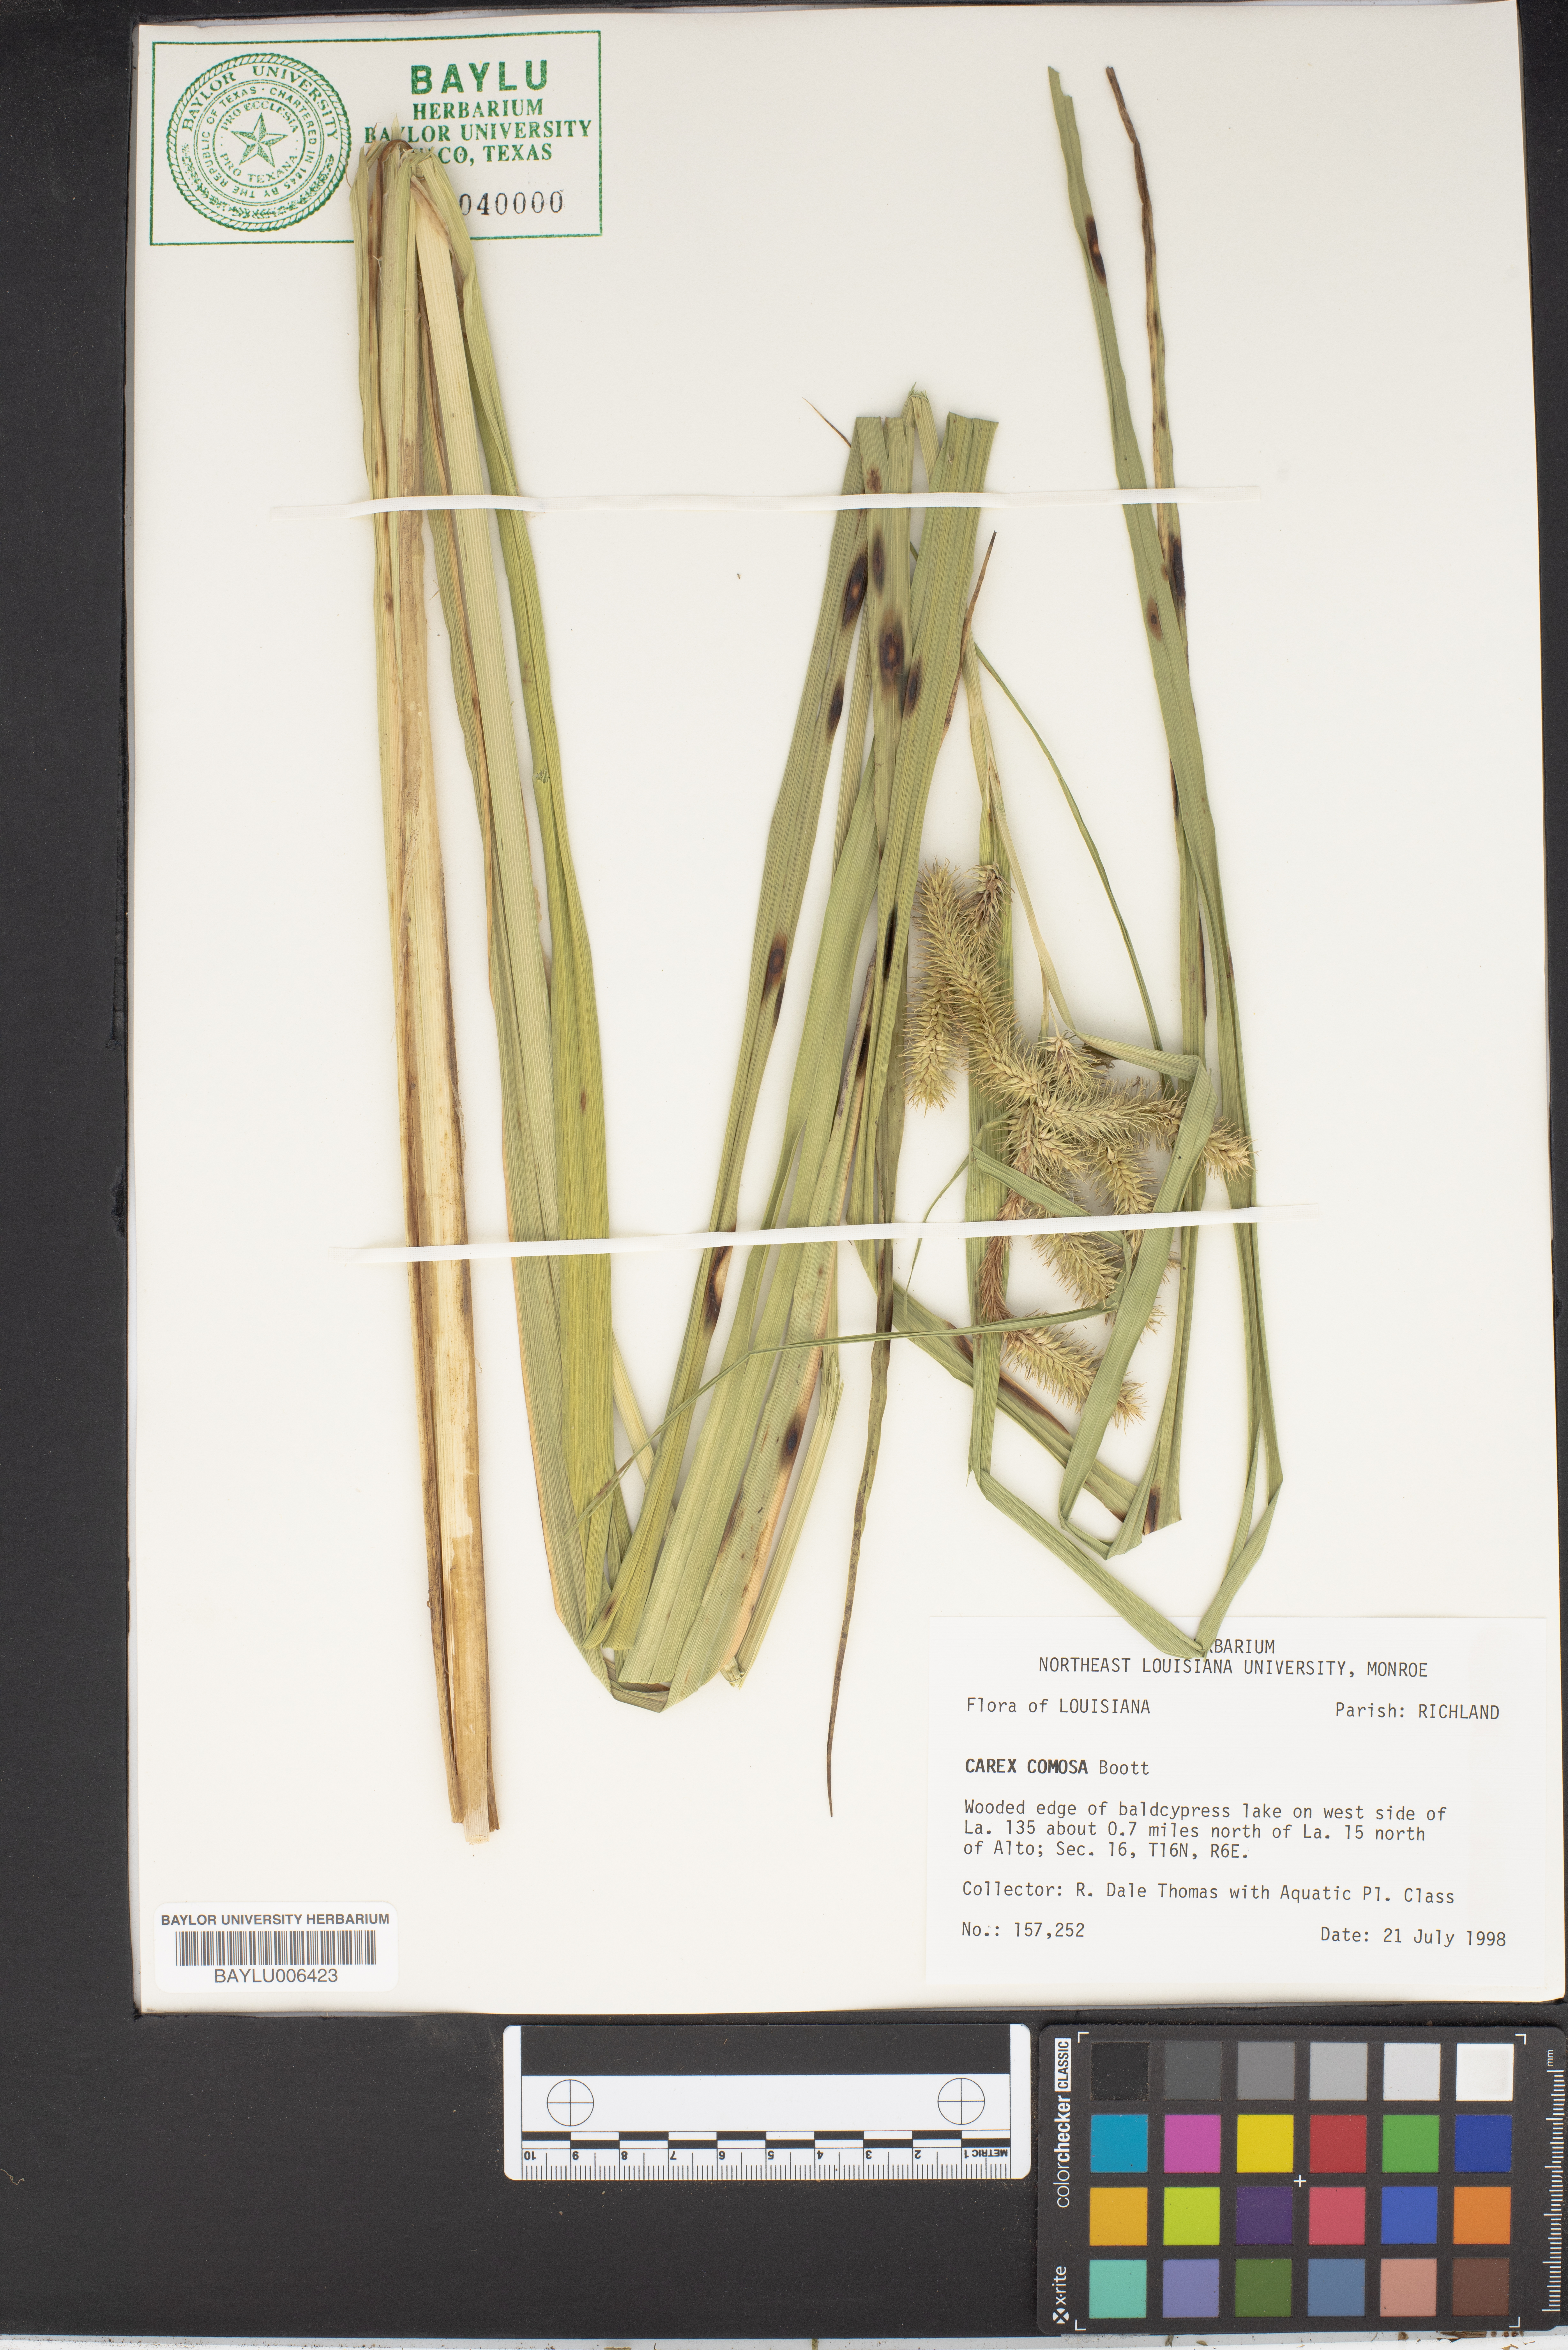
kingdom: Plantae
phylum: Tracheophyta
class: Liliopsida
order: Poales
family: Cyperaceae
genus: Carex
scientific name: Carex comosa
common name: Bristly sedge
